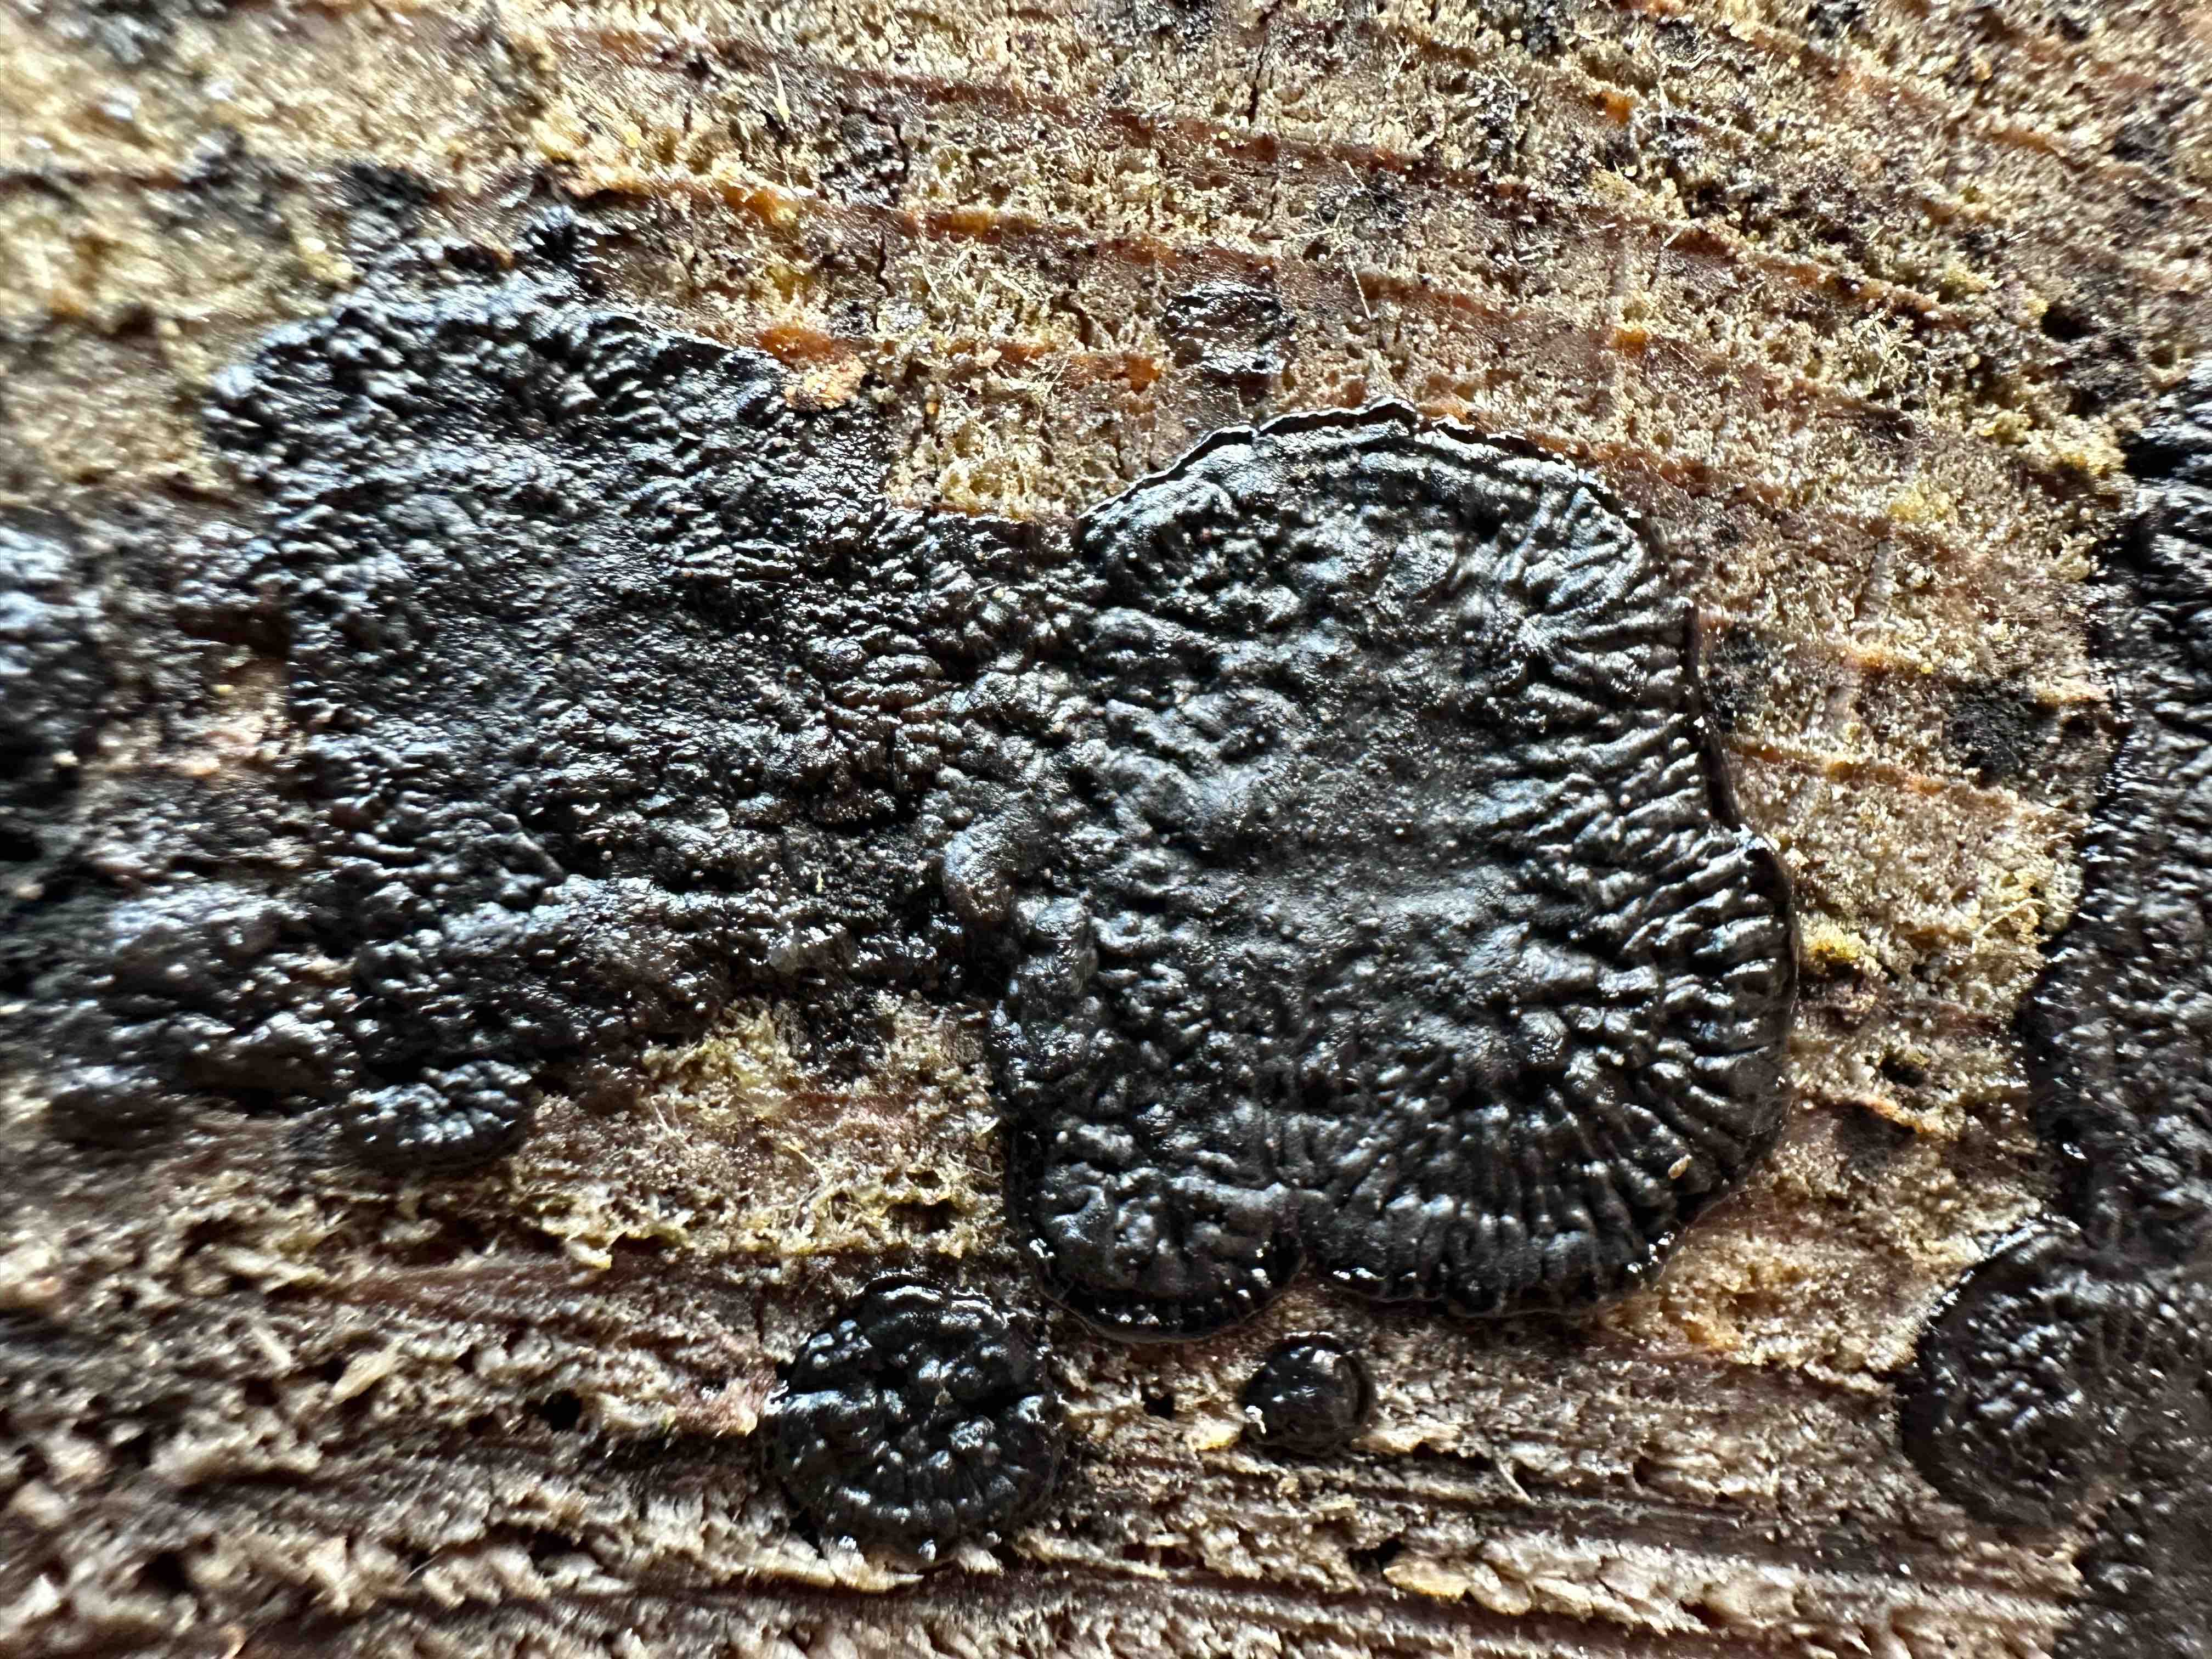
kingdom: Fungi
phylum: Basidiomycota
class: Agaricomycetes
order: Auriculariales
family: Auriculariaceae
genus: Exidia
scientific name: Exidia pithya
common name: gran-bævretop
